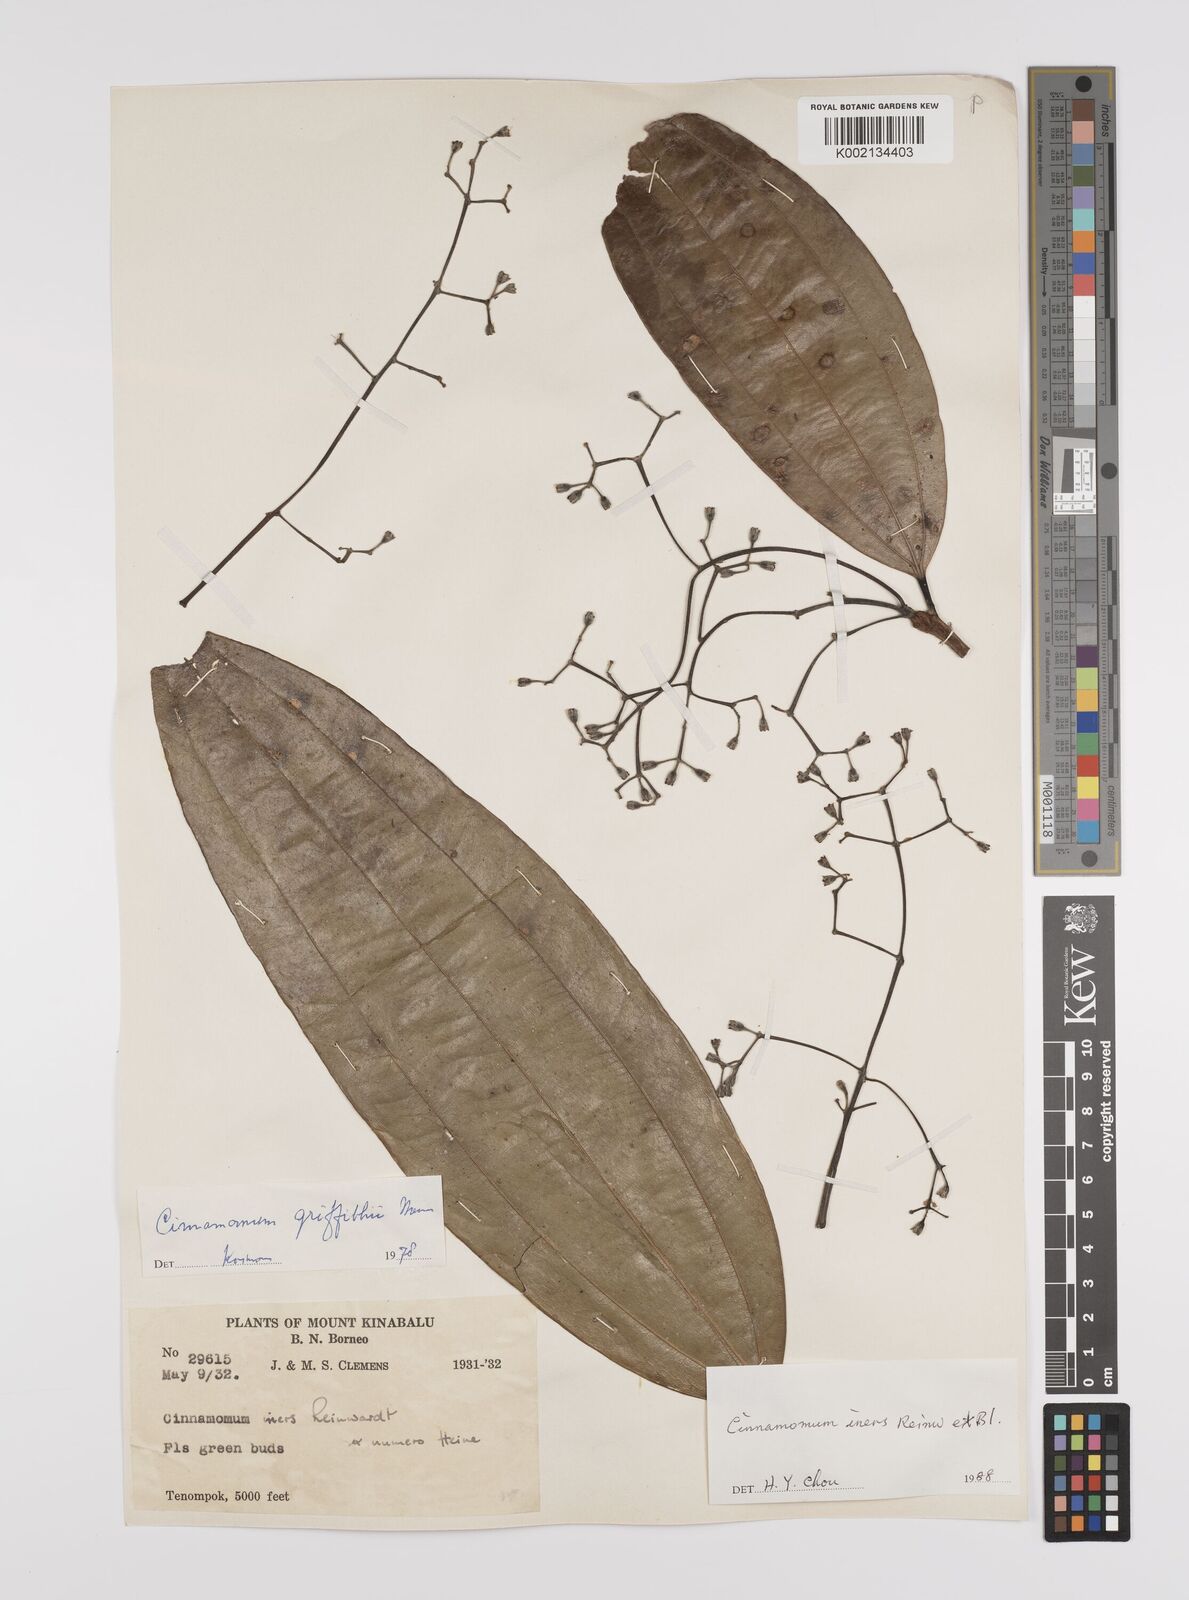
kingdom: Plantae
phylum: Tracheophyta
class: Magnoliopsida
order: Laurales
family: Lauraceae
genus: Cinnamomum
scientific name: Cinnamomum iners
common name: Wild cinnamon
